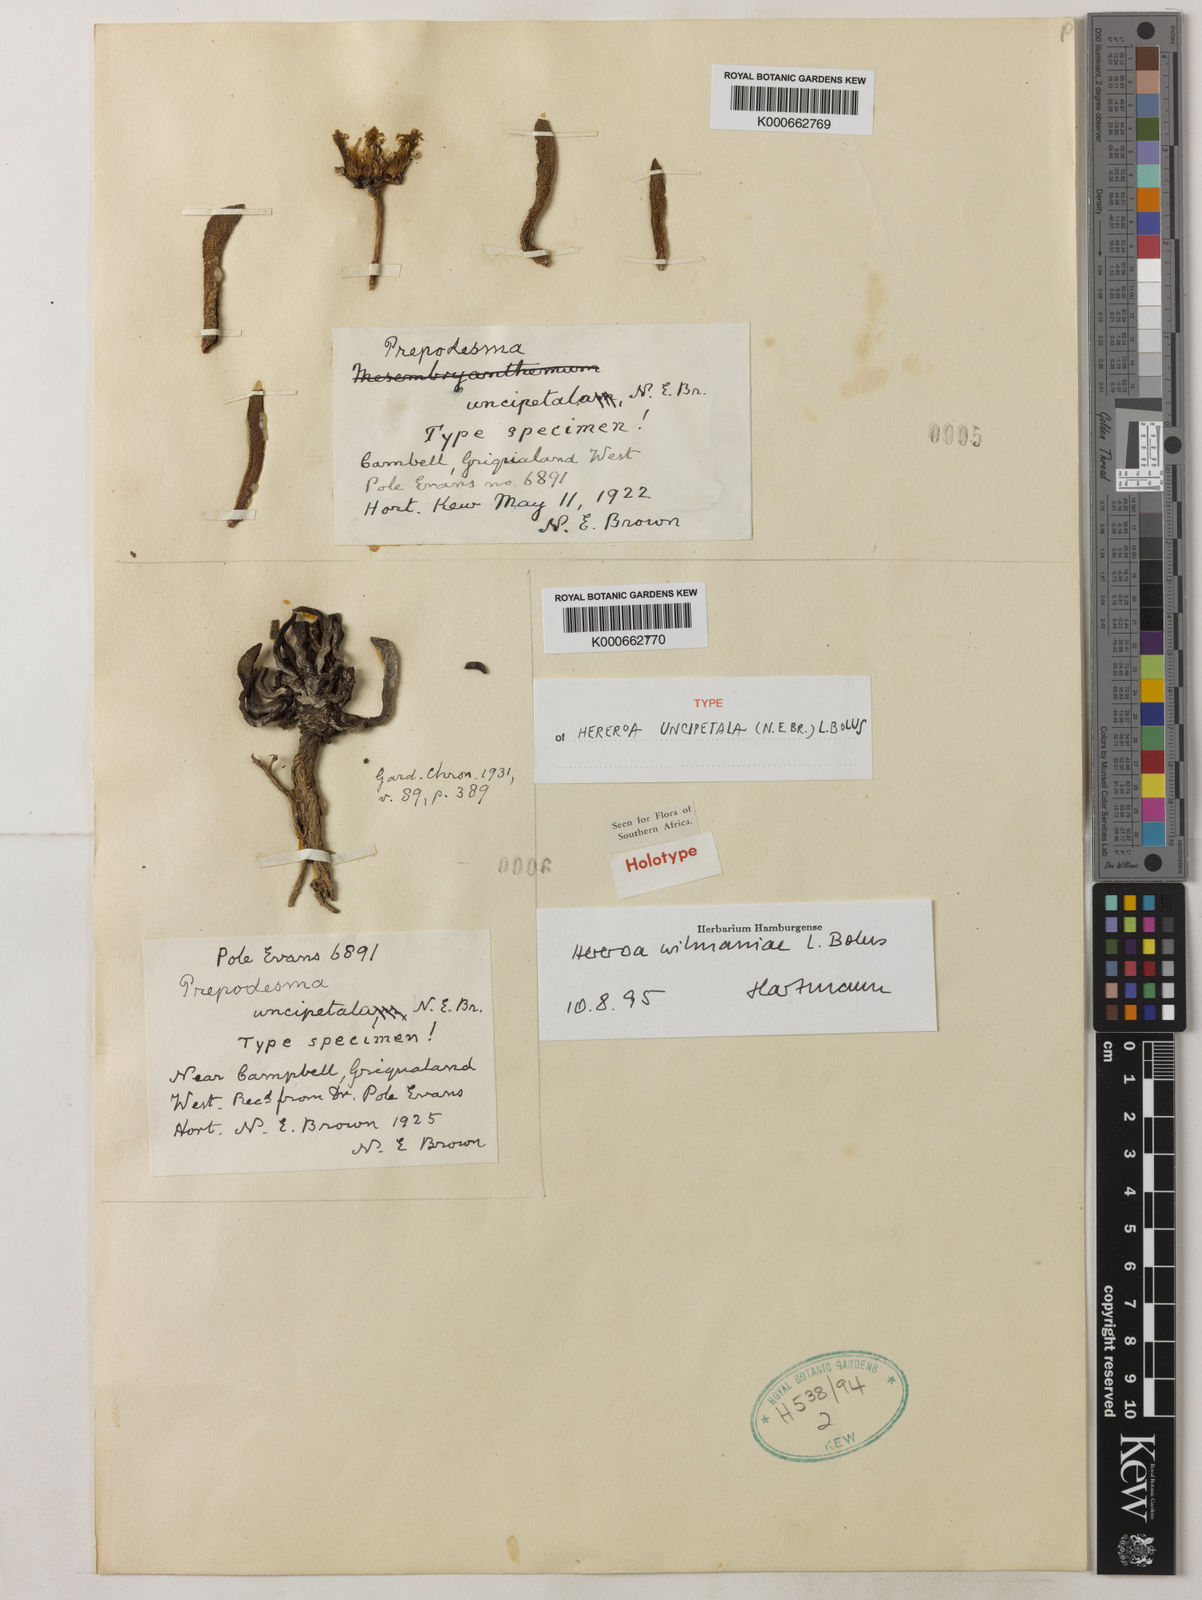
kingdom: Plantae
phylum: Tracheophyta
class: Magnoliopsida
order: Caryophyllales
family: Aizoaceae
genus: Dracophilus
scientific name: Dracophilus Hereroa wilmaniae
